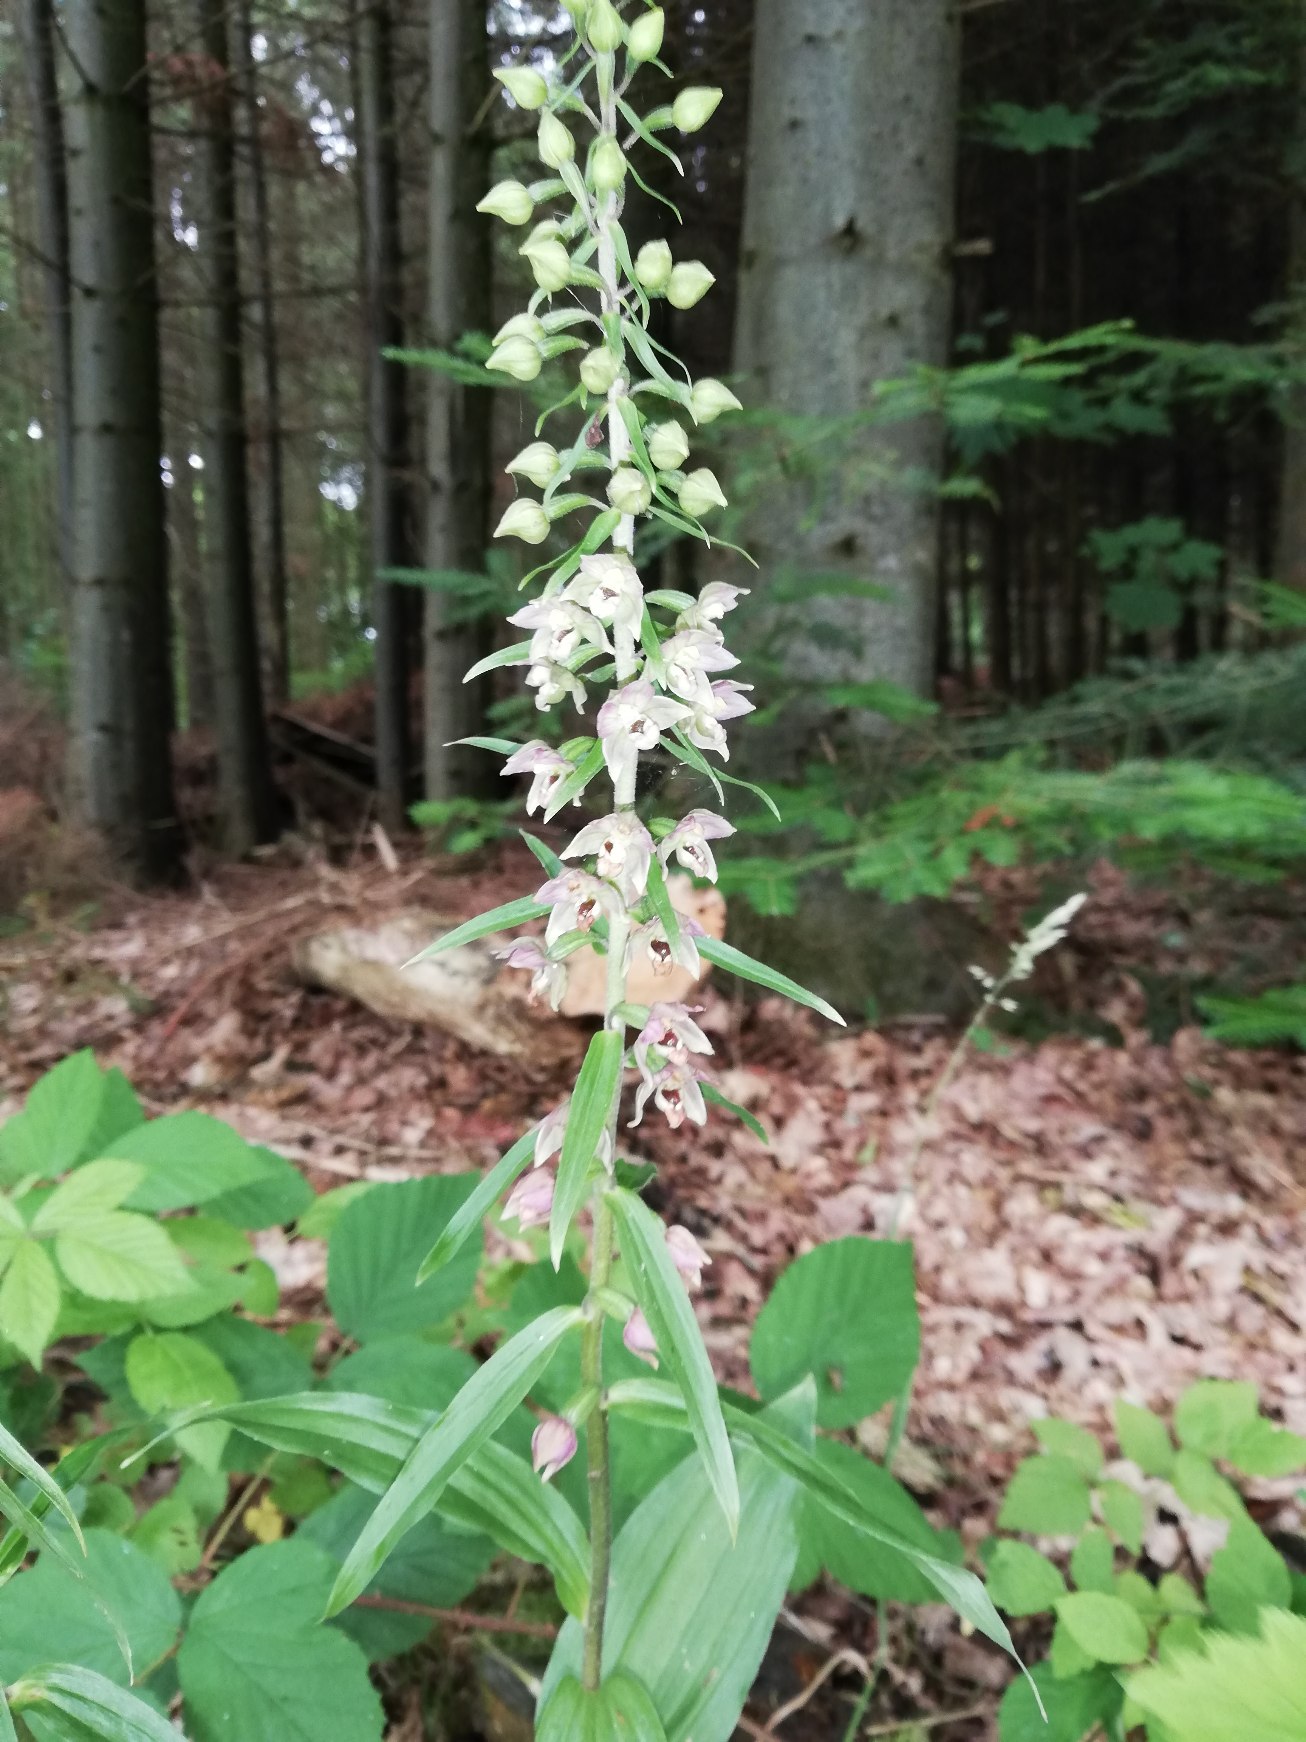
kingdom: Plantae
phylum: Tracheophyta
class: Liliopsida
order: Asparagales
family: Orchidaceae
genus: Epipactis
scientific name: Epipactis helleborine
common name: Skov-hullæbe
